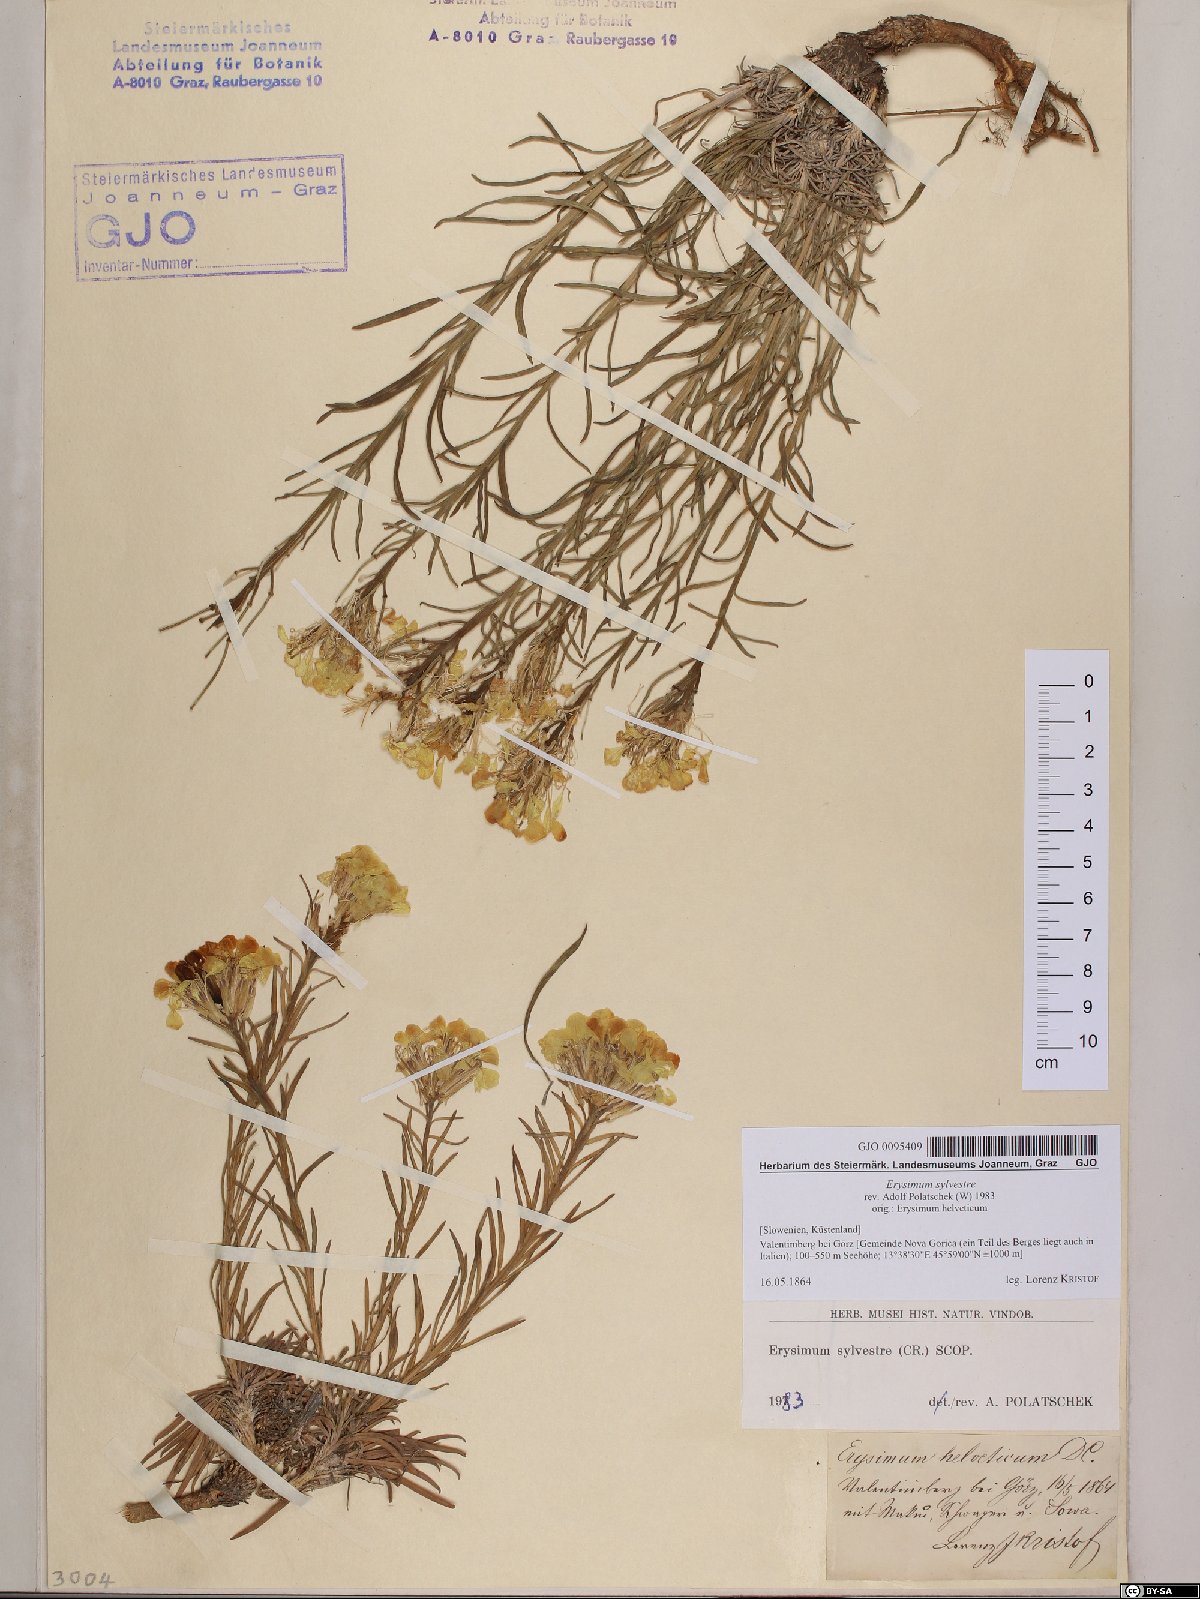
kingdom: Plantae
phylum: Tracheophyta
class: Magnoliopsida
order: Brassicales
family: Brassicaceae
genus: Erysimum
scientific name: Erysimum sylvestre
